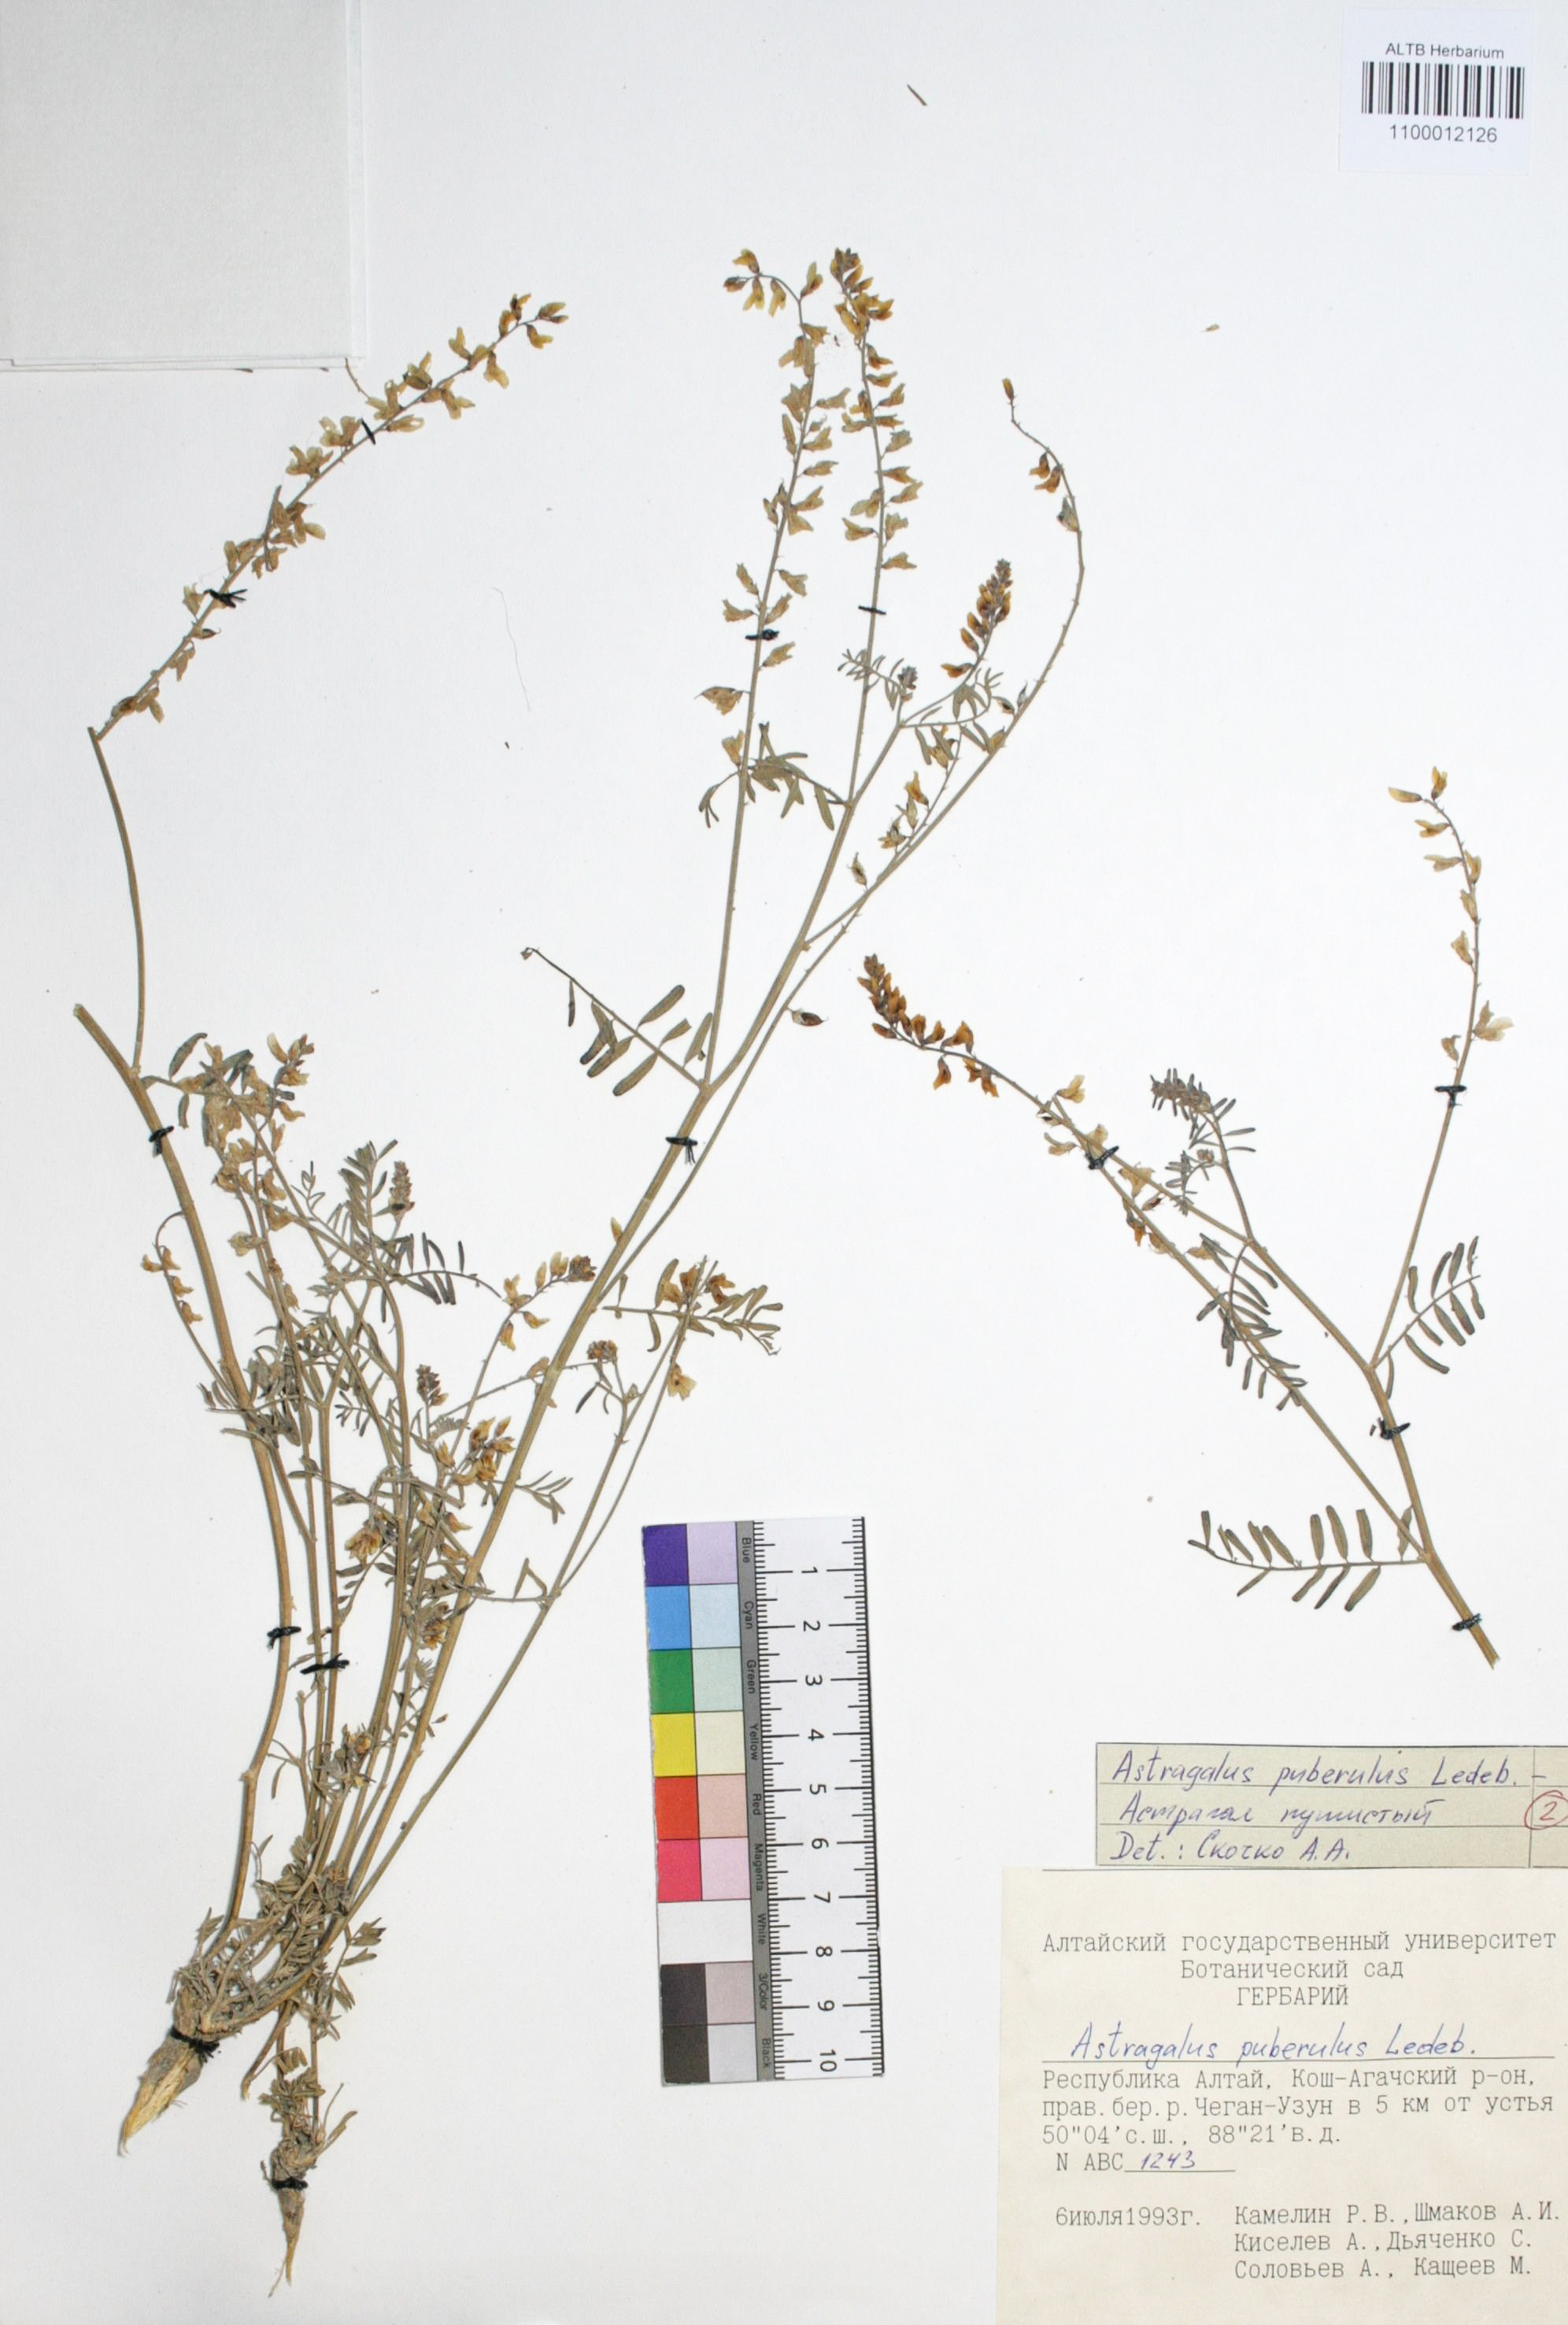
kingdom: Plantae
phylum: Tracheophyta
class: Magnoliopsida
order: Fabales
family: Fabaceae
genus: Astragalus
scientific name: Astragalus puberulus
